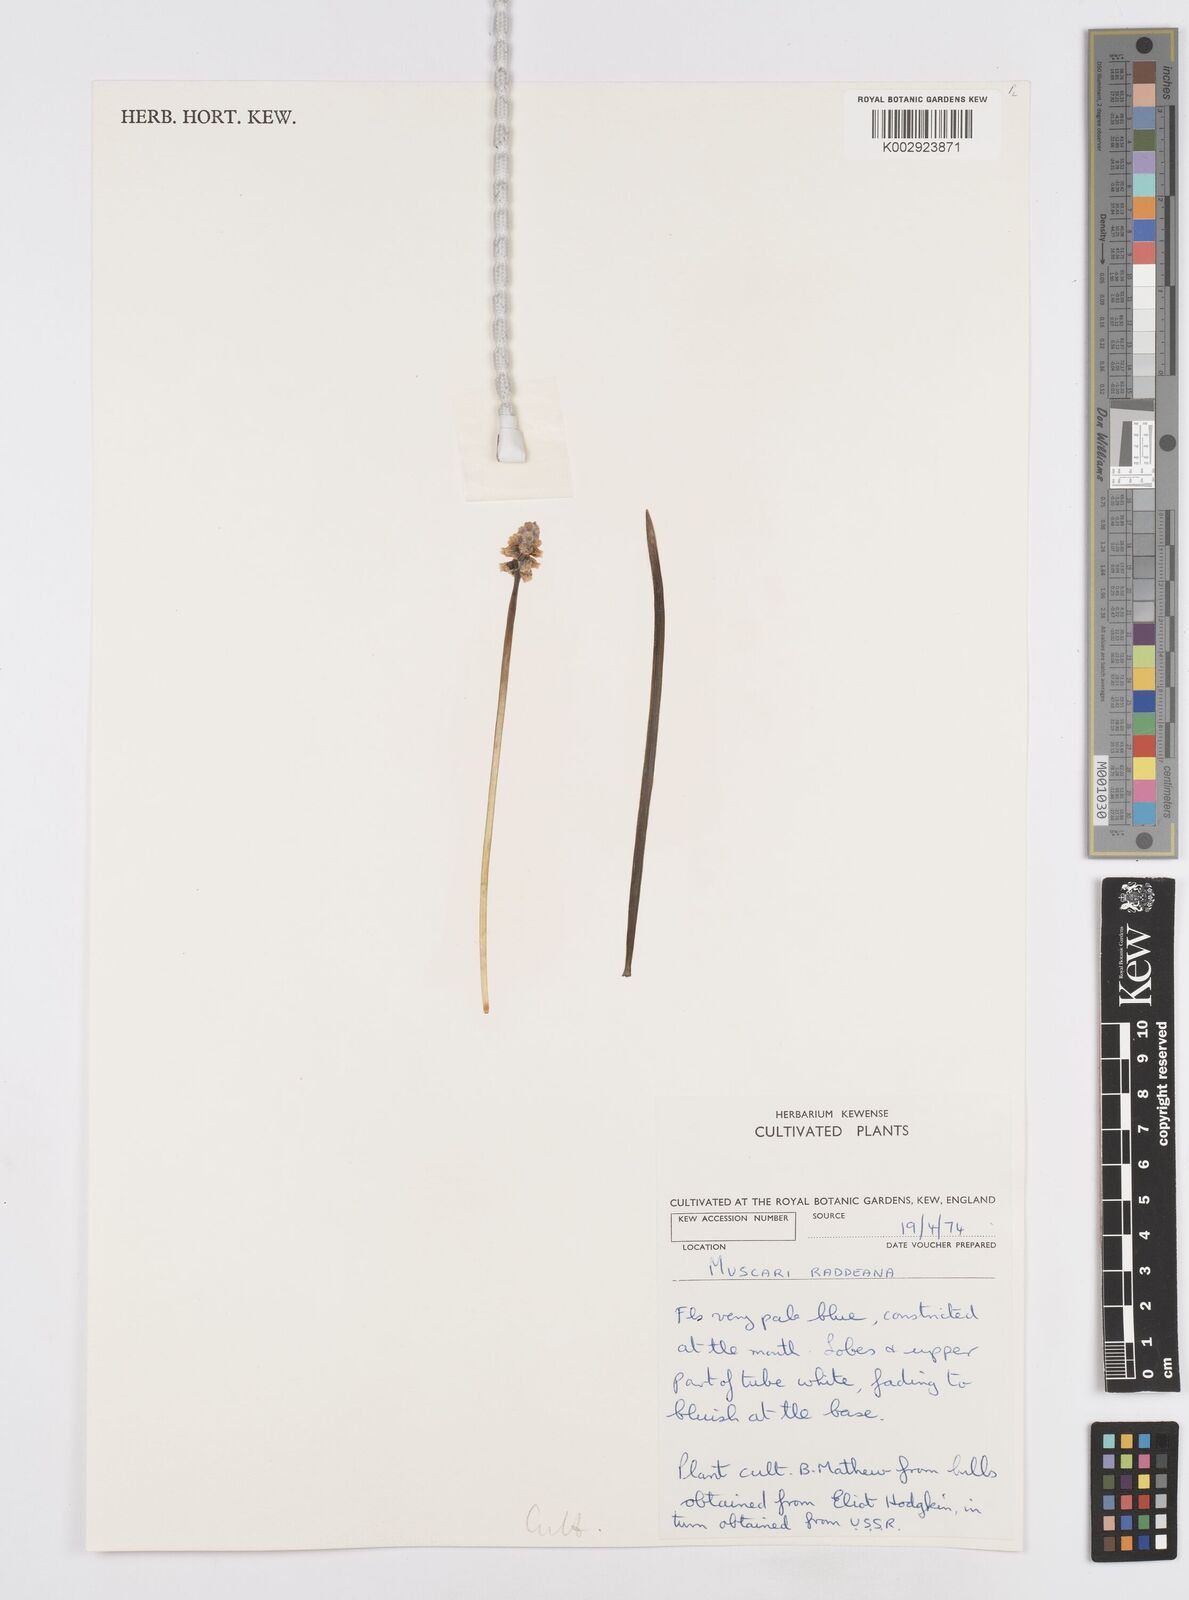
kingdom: Plantae
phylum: Tracheophyta
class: Liliopsida
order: Asparagales
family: Asparagaceae
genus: Muscari
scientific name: Muscari
